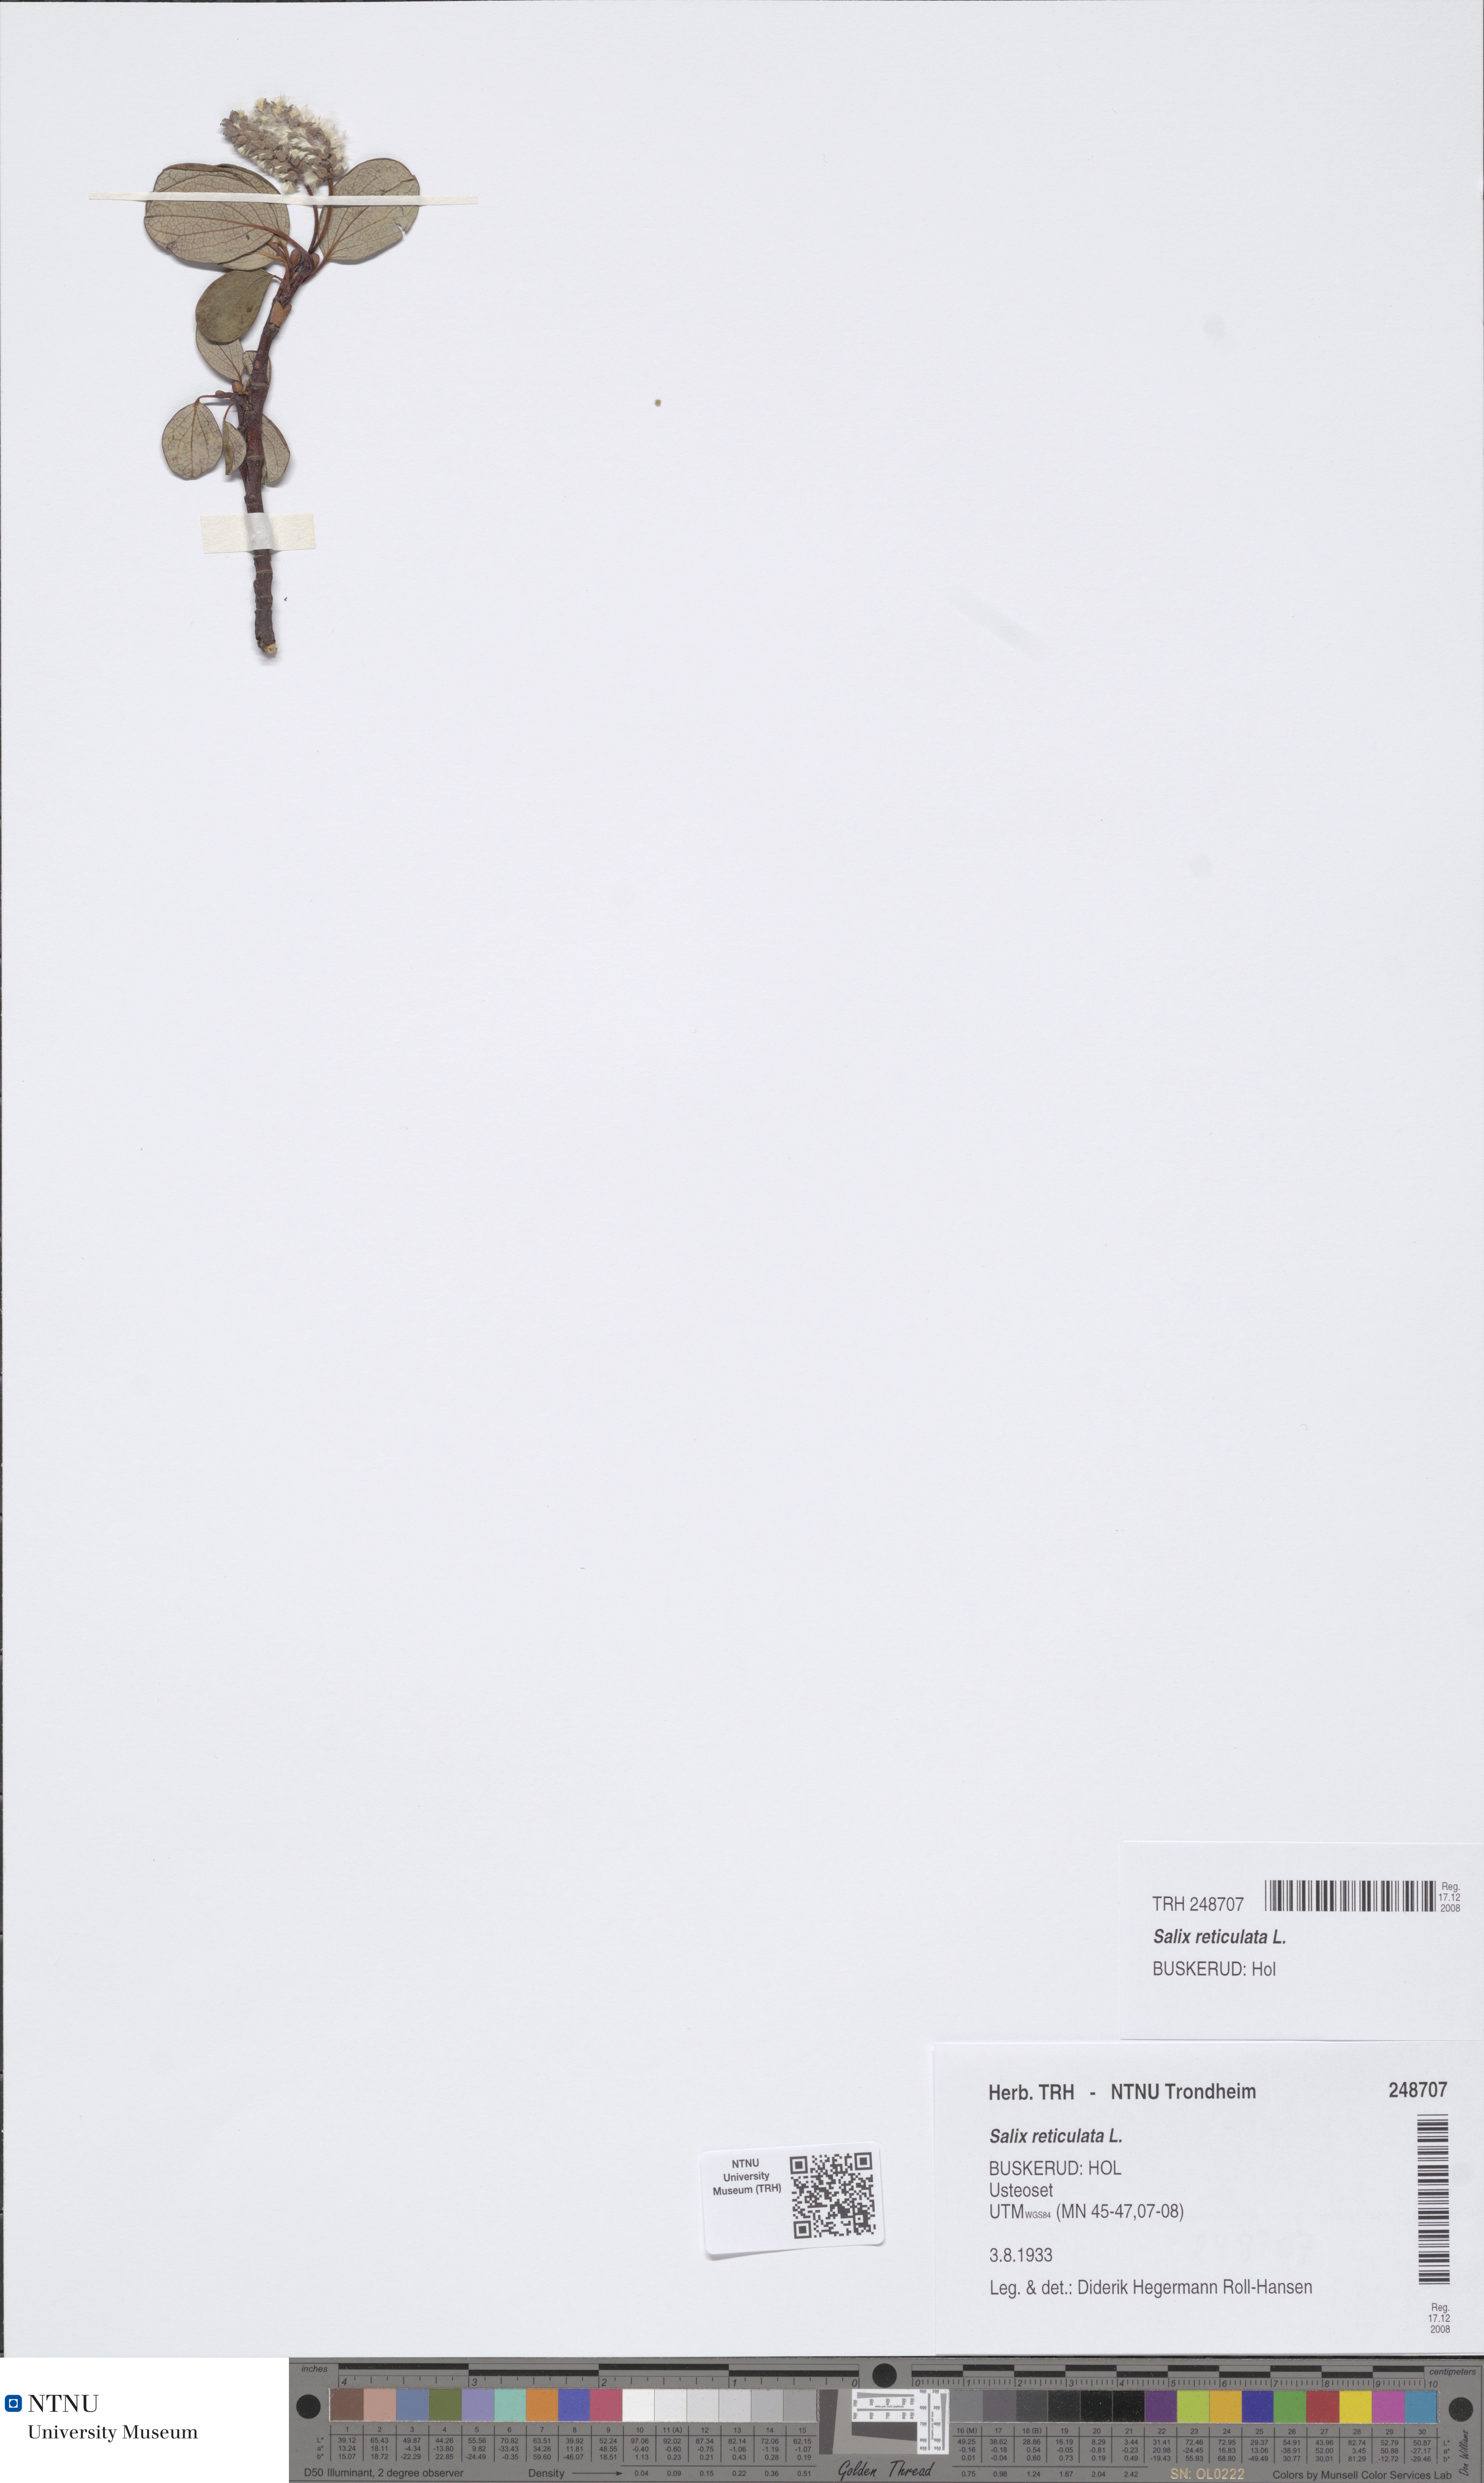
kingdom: Plantae
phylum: Tracheophyta
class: Magnoliopsida
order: Malpighiales
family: Salicaceae
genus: Salix
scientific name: Salix reticulata
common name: Net-leaved willow
